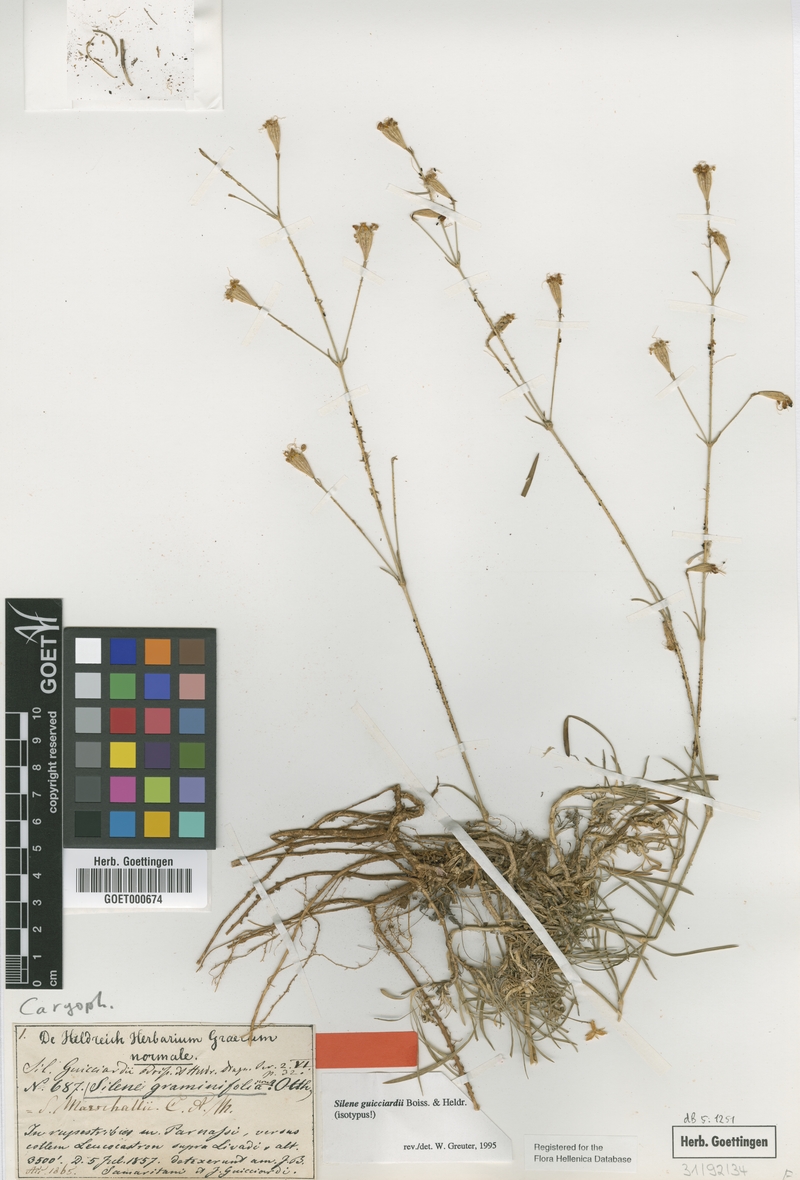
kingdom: Plantae
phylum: Tracheophyta
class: Magnoliopsida
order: Caryophyllales
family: Caryophyllaceae
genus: Silene
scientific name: Silene marschallii
